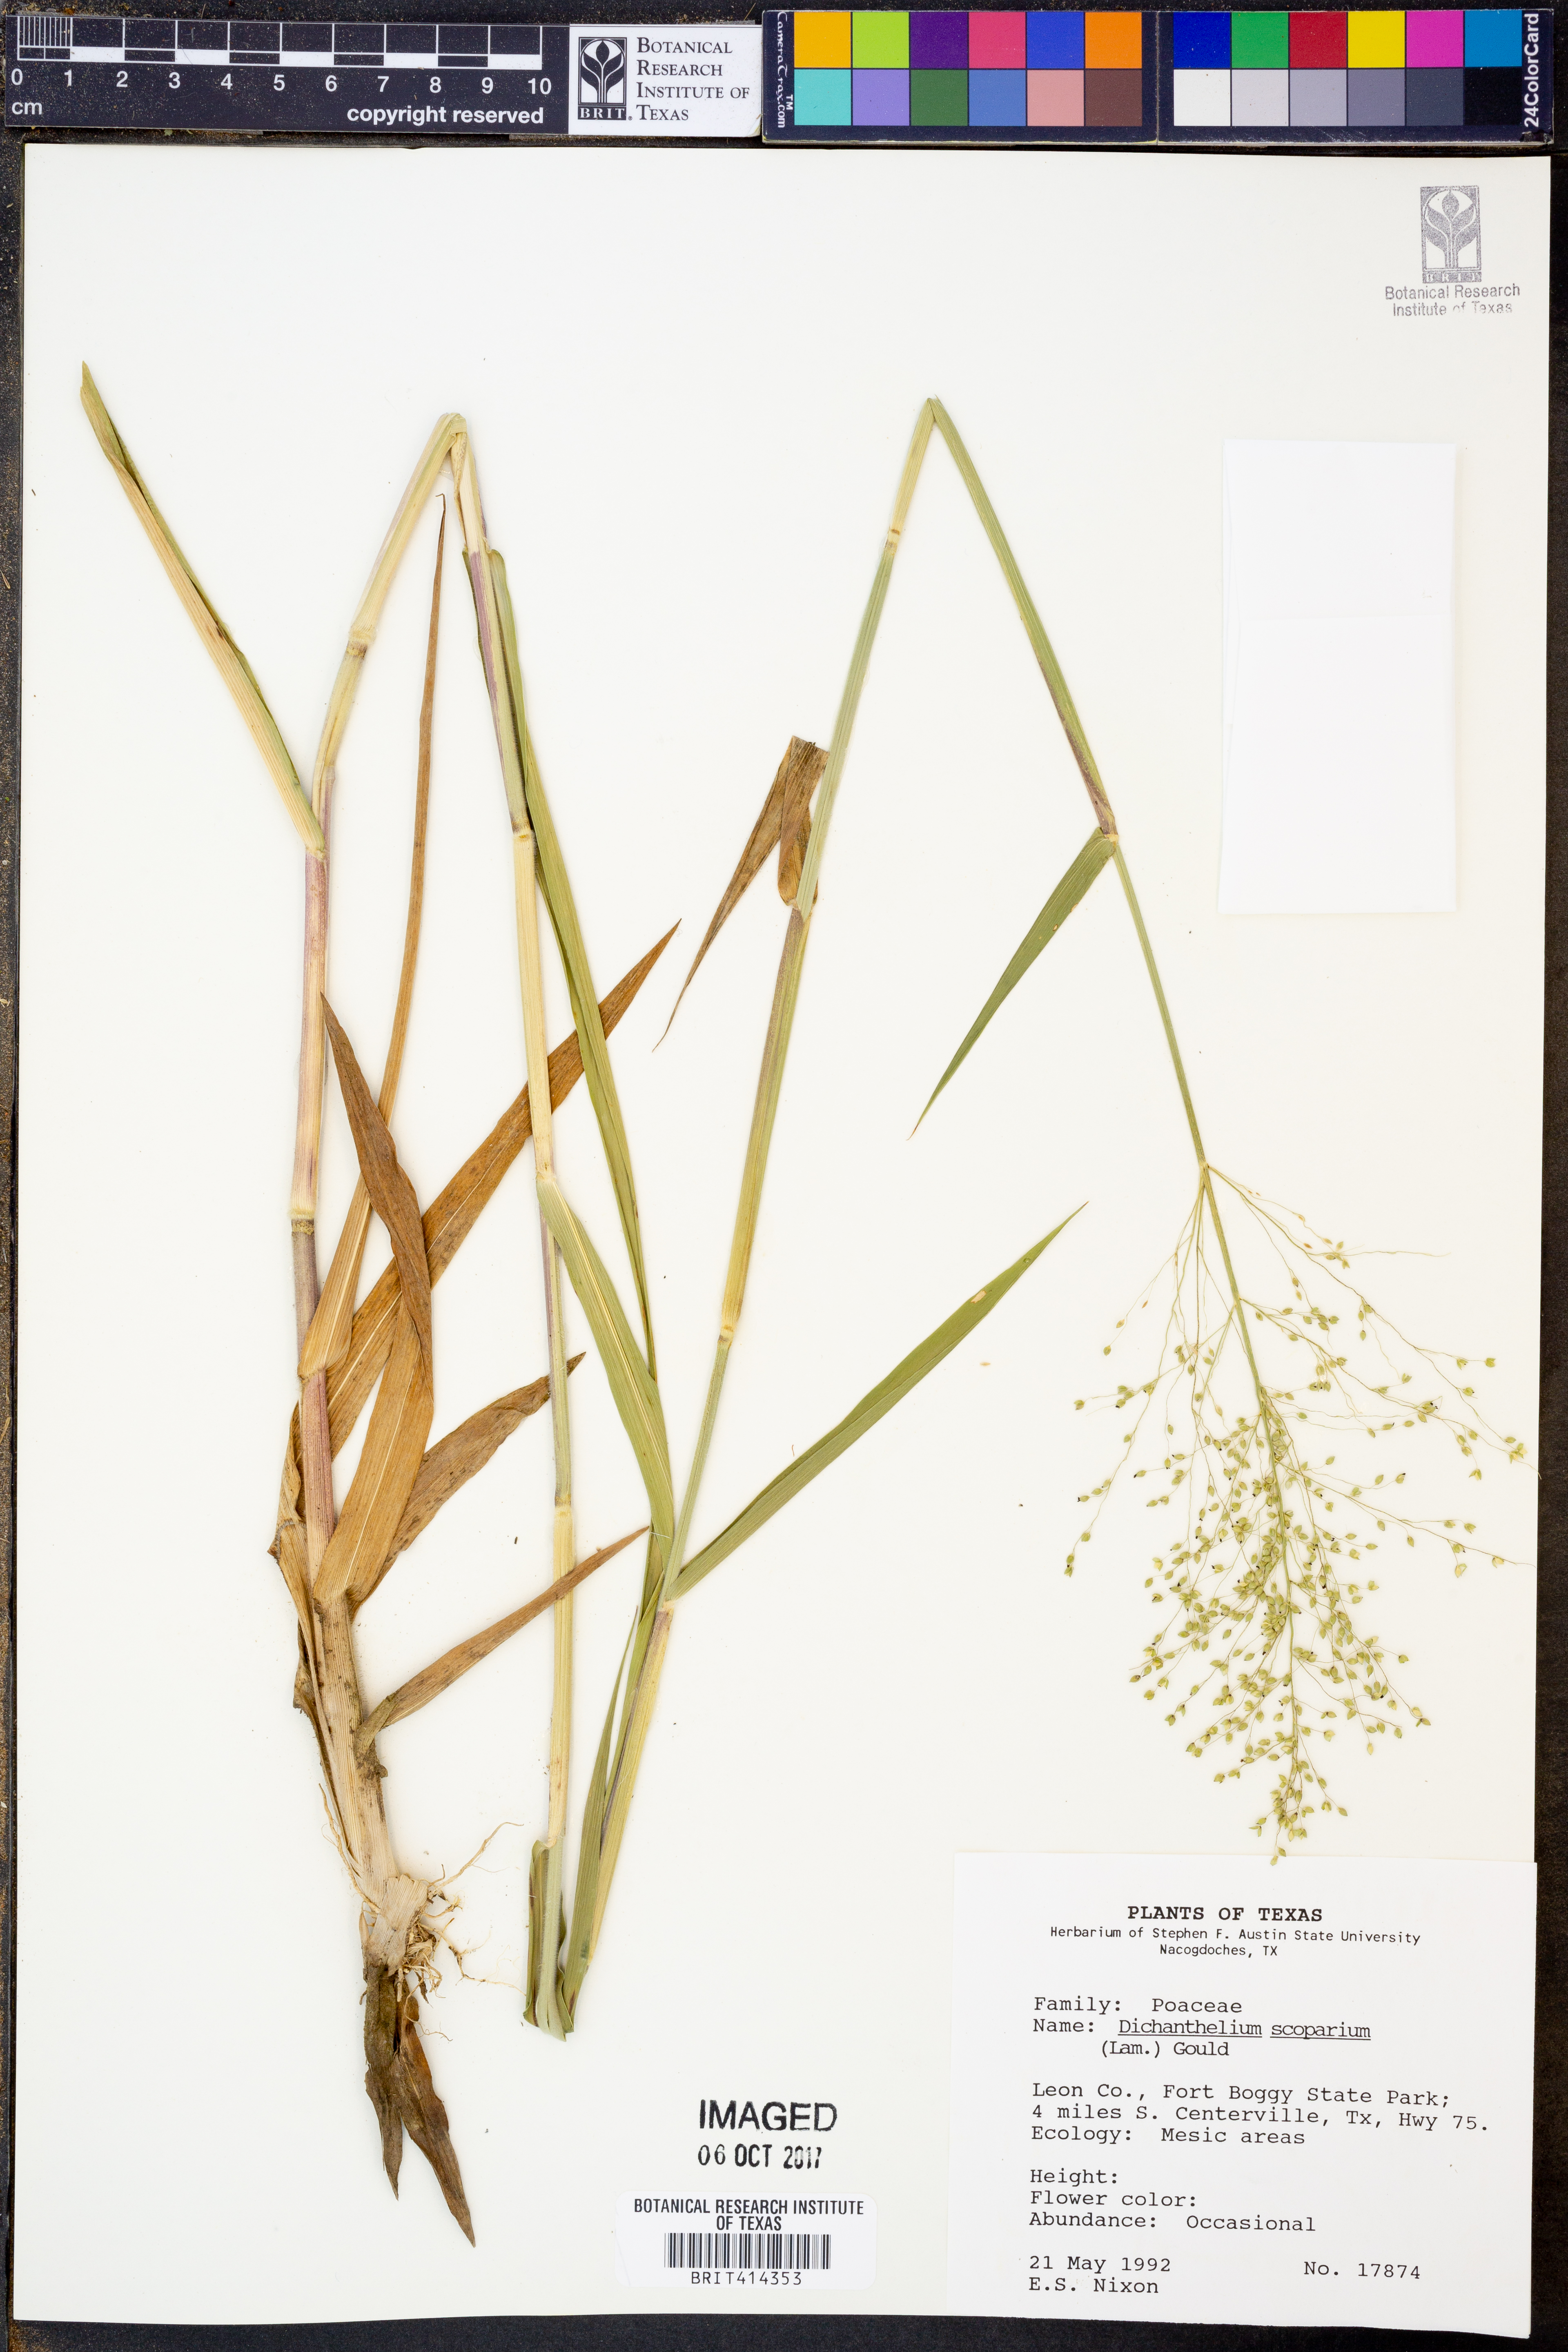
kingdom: Plantae
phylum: Tracheophyta
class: Liliopsida
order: Poales
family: Poaceae
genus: Dichanthelium
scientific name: Dichanthelium scoparium
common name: Velvety panic grass
